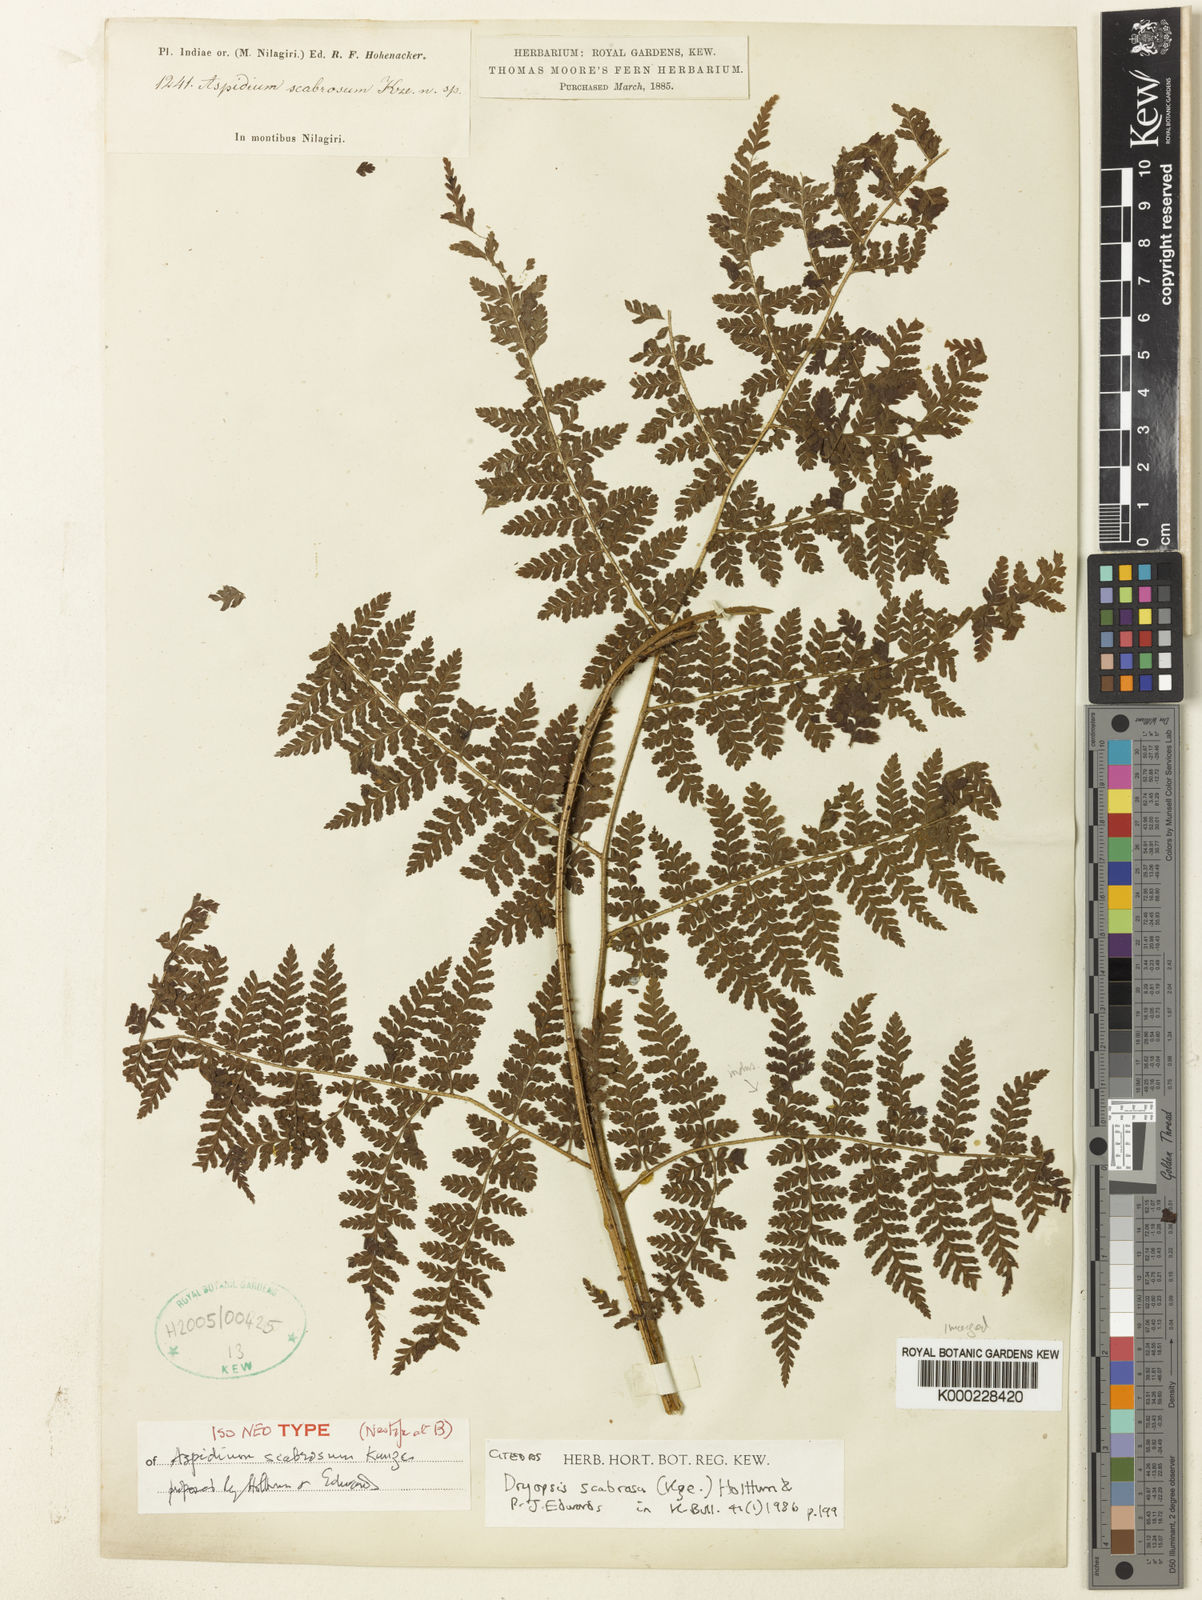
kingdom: Plantae
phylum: Tracheophyta
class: Polypodiopsida
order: Polypodiales
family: Dryopteridaceae
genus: Dryopteris
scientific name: Dryopteris scabrosa
